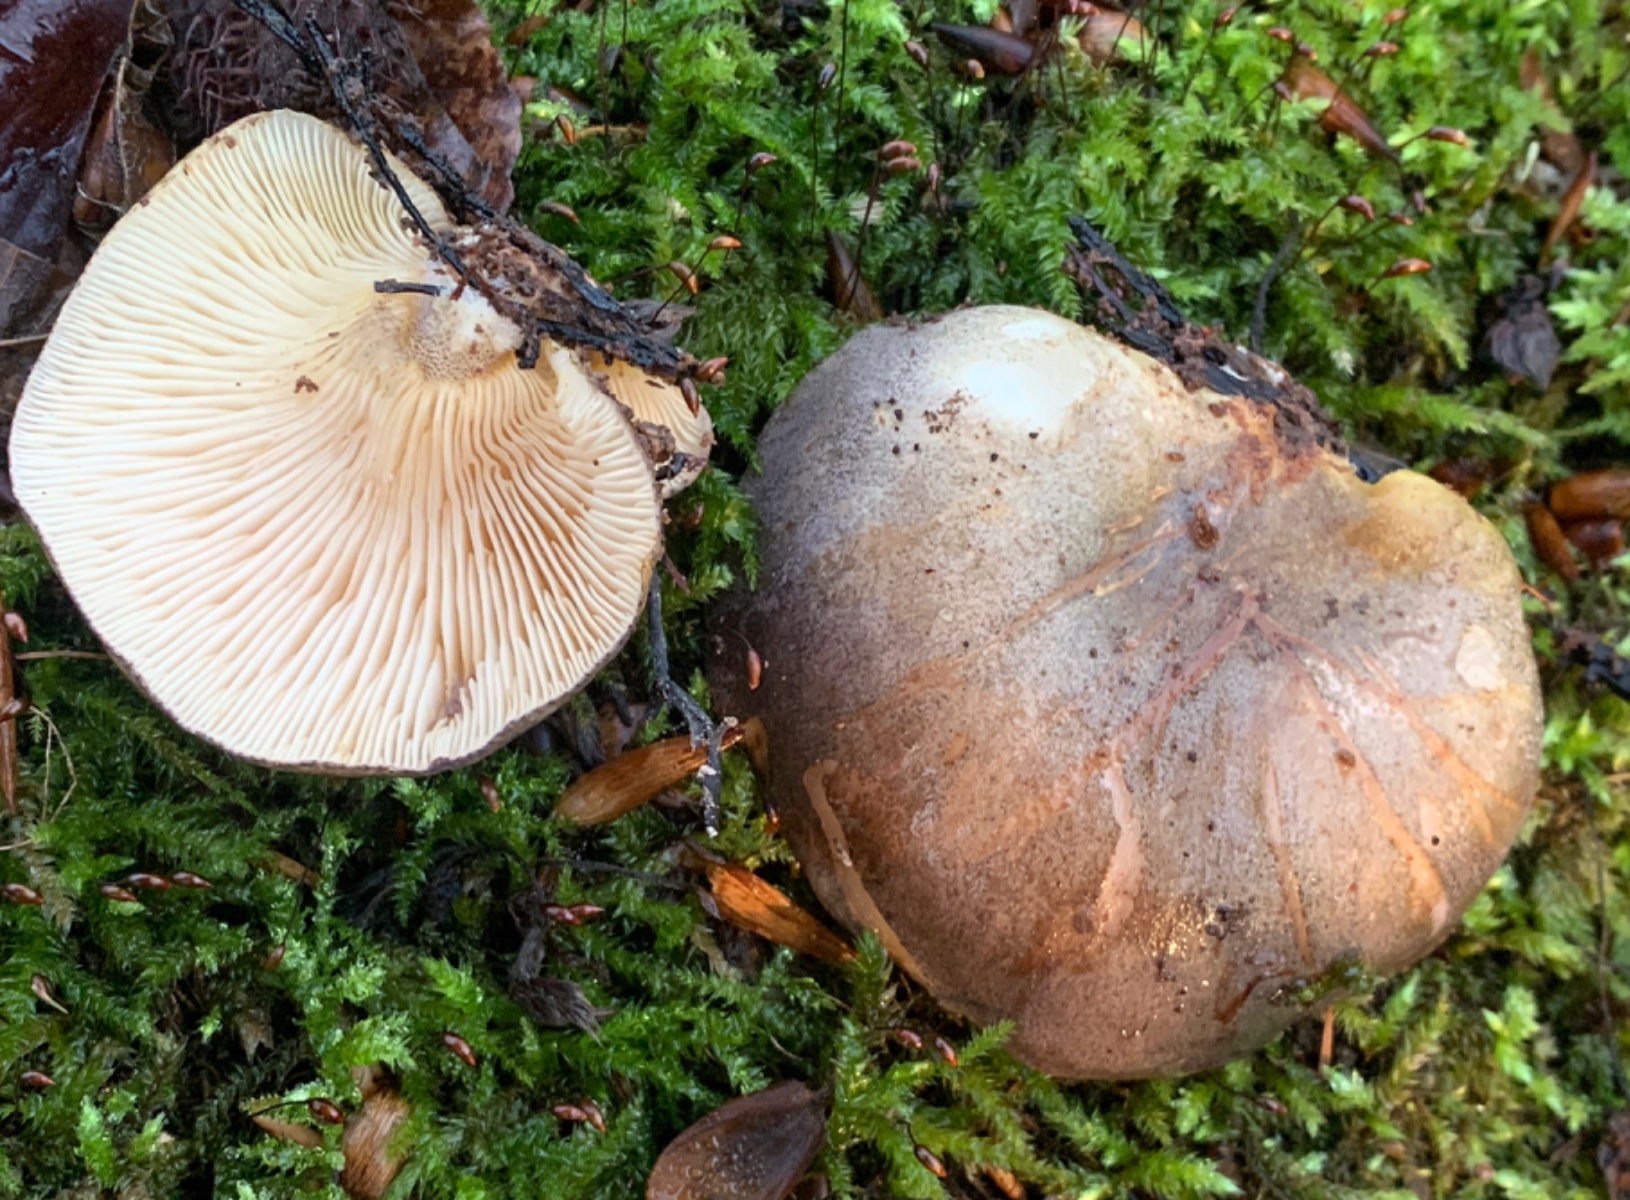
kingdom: Fungi
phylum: Basidiomycota
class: Agaricomycetes
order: Agaricales
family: Sarcomyxaceae
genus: Sarcomyxa
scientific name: Sarcomyxa serotina
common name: gummihat
